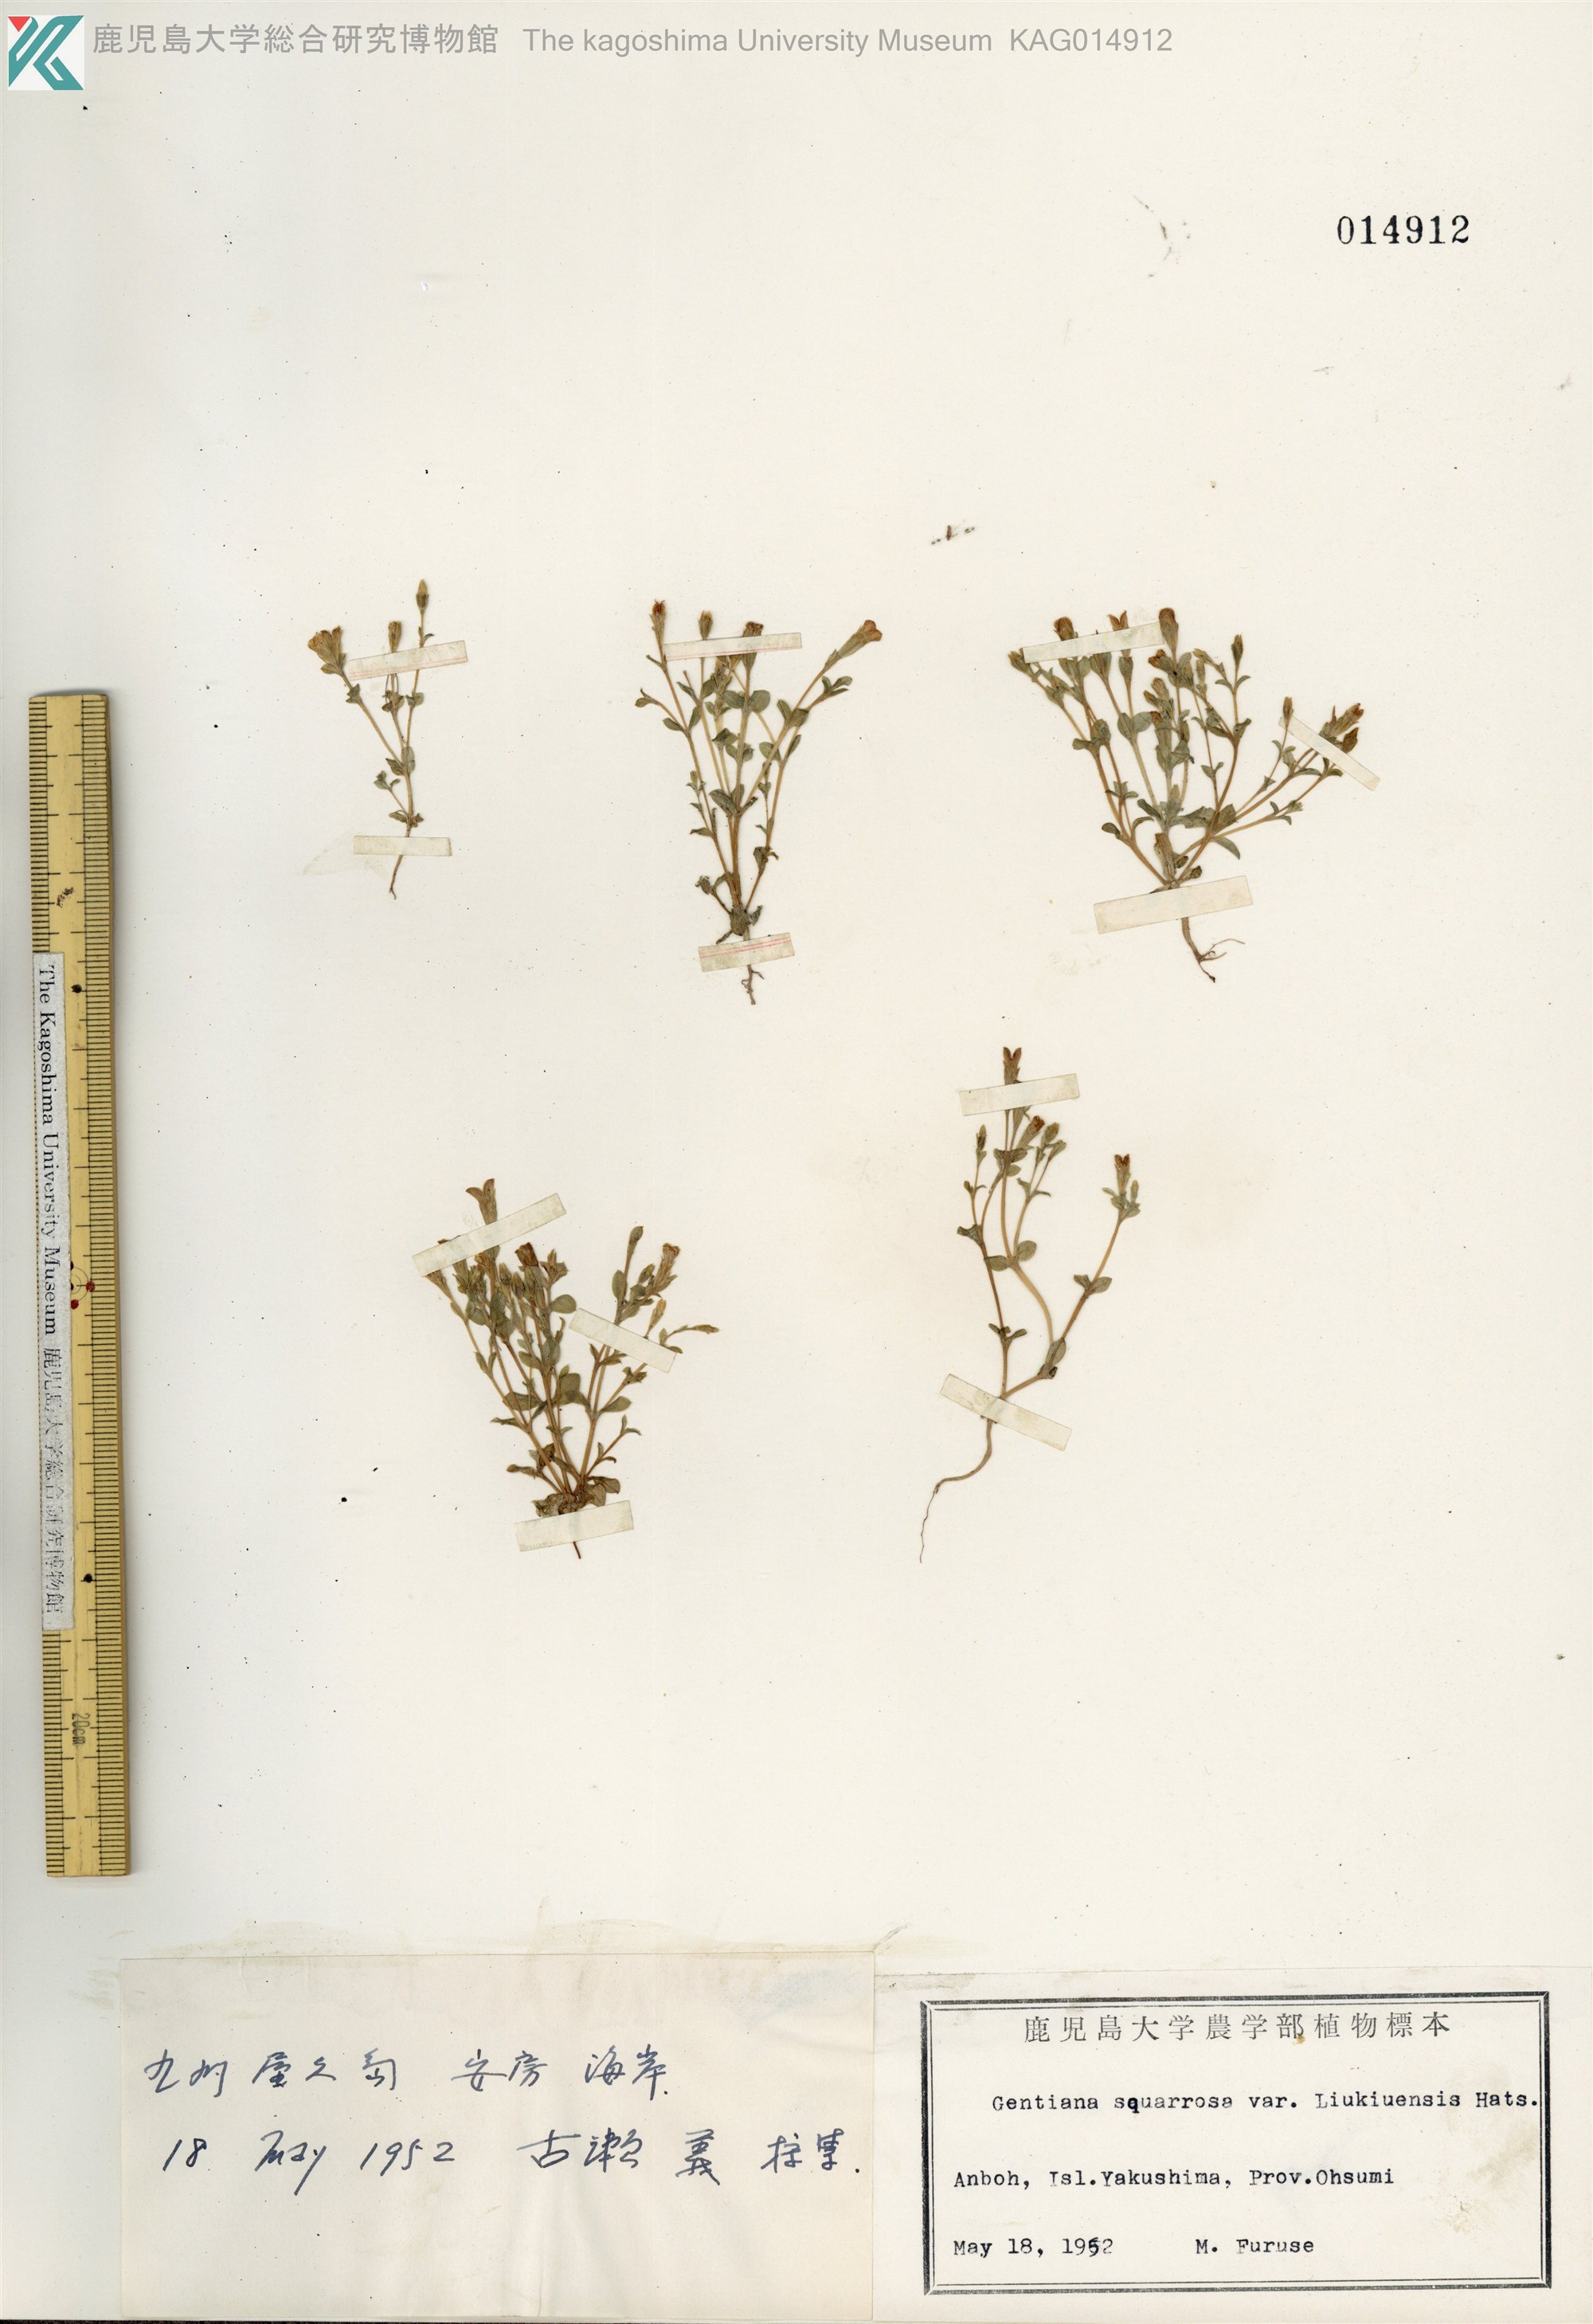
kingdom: Plantae
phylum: Tracheophyta
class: Magnoliopsida
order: Gentianales
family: Gentianaceae
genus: Gentiana
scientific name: Gentiana satsunanensis
